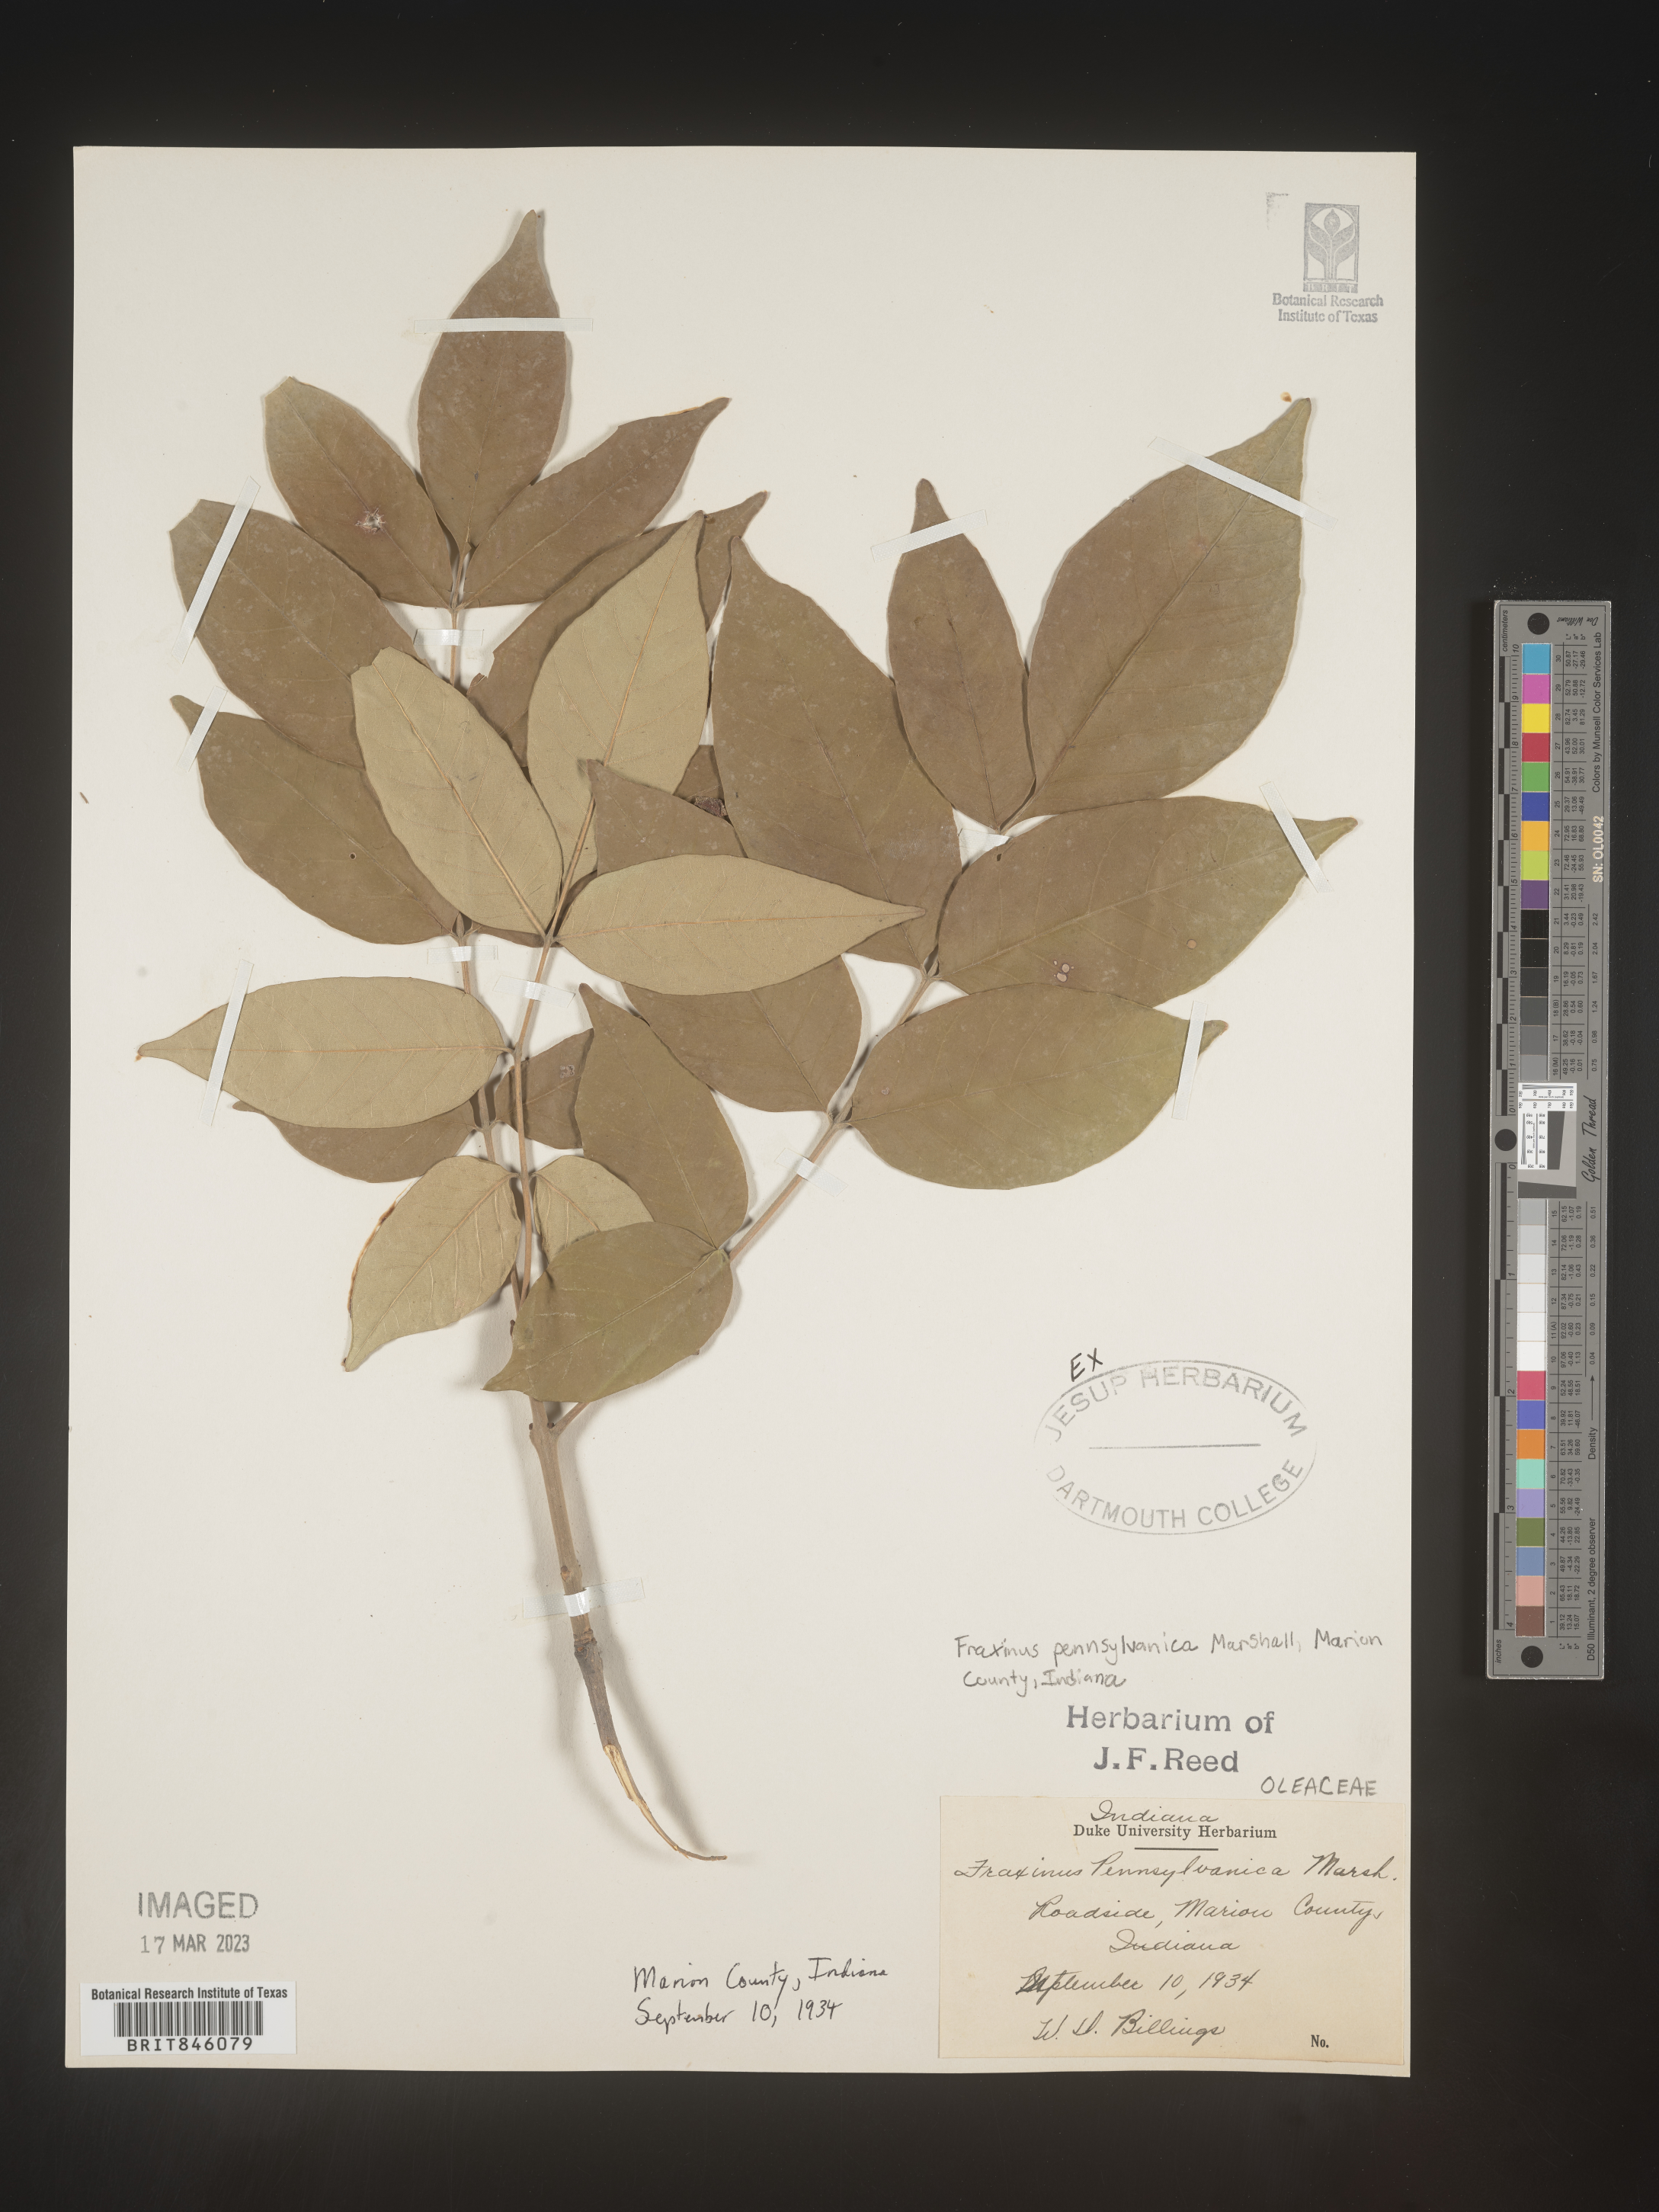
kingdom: Plantae
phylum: Tracheophyta
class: Magnoliopsida
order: Lamiales
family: Oleaceae
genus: Fraxinus
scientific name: Fraxinus pennsylvanica
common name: Green ash
